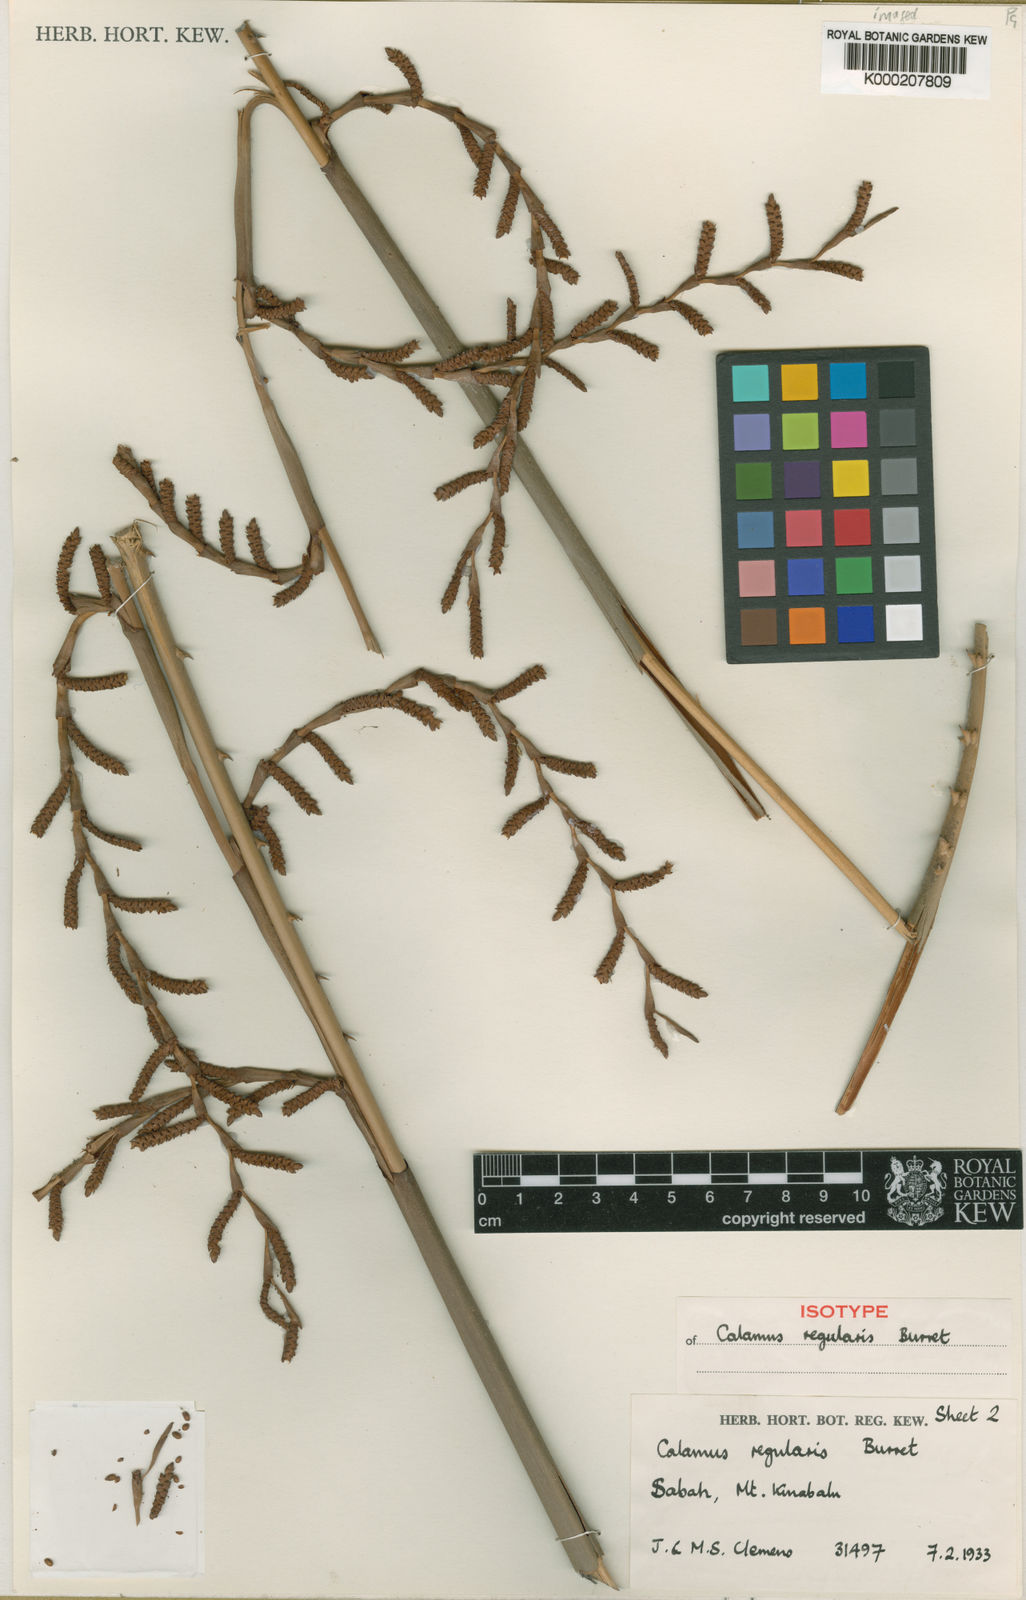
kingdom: Plantae
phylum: Tracheophyta
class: Liliopsida
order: Arecales
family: Arecaceae
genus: Calamus
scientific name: Calamus
